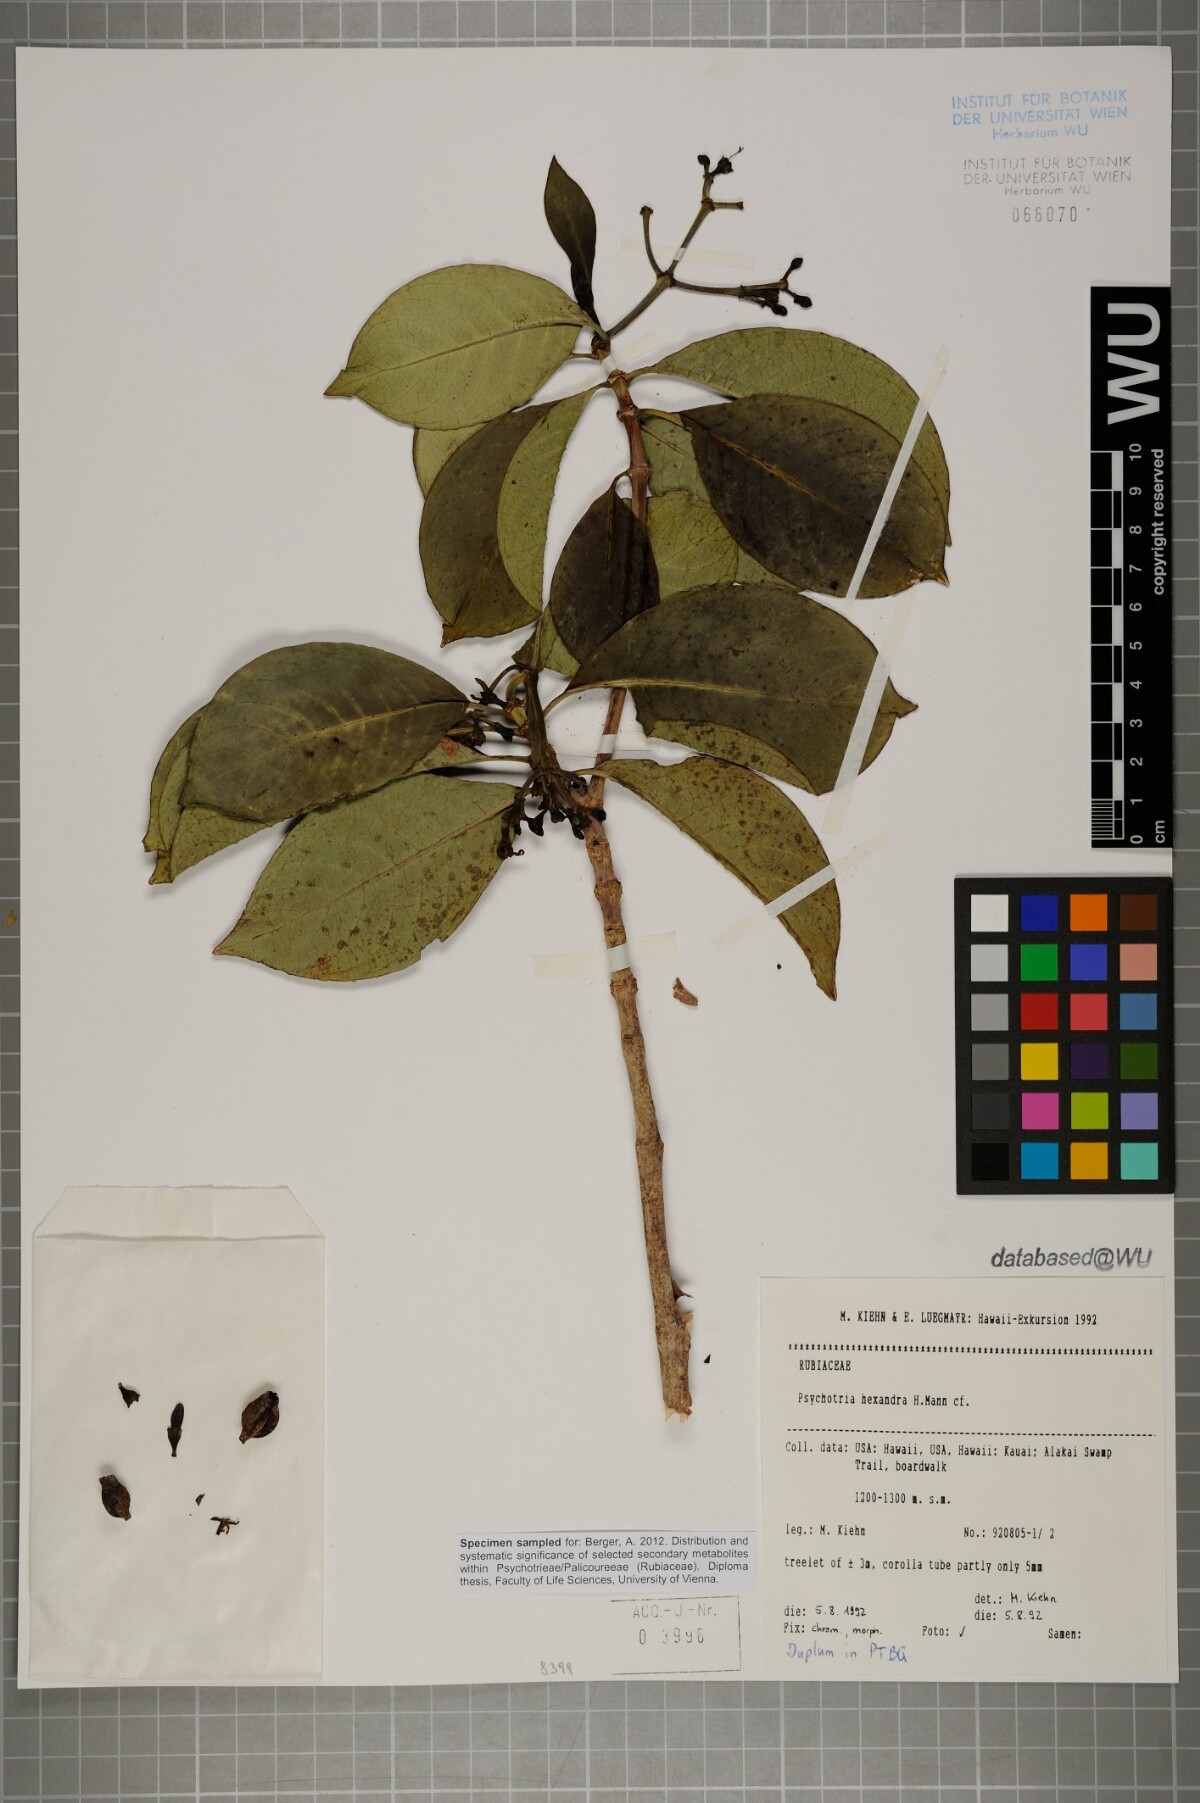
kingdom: Plantae
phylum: Tracheophyta
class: Magnoliopsida
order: Gentianales
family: Rubiaceae
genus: Psychotria
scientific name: Psychotria hexandra
